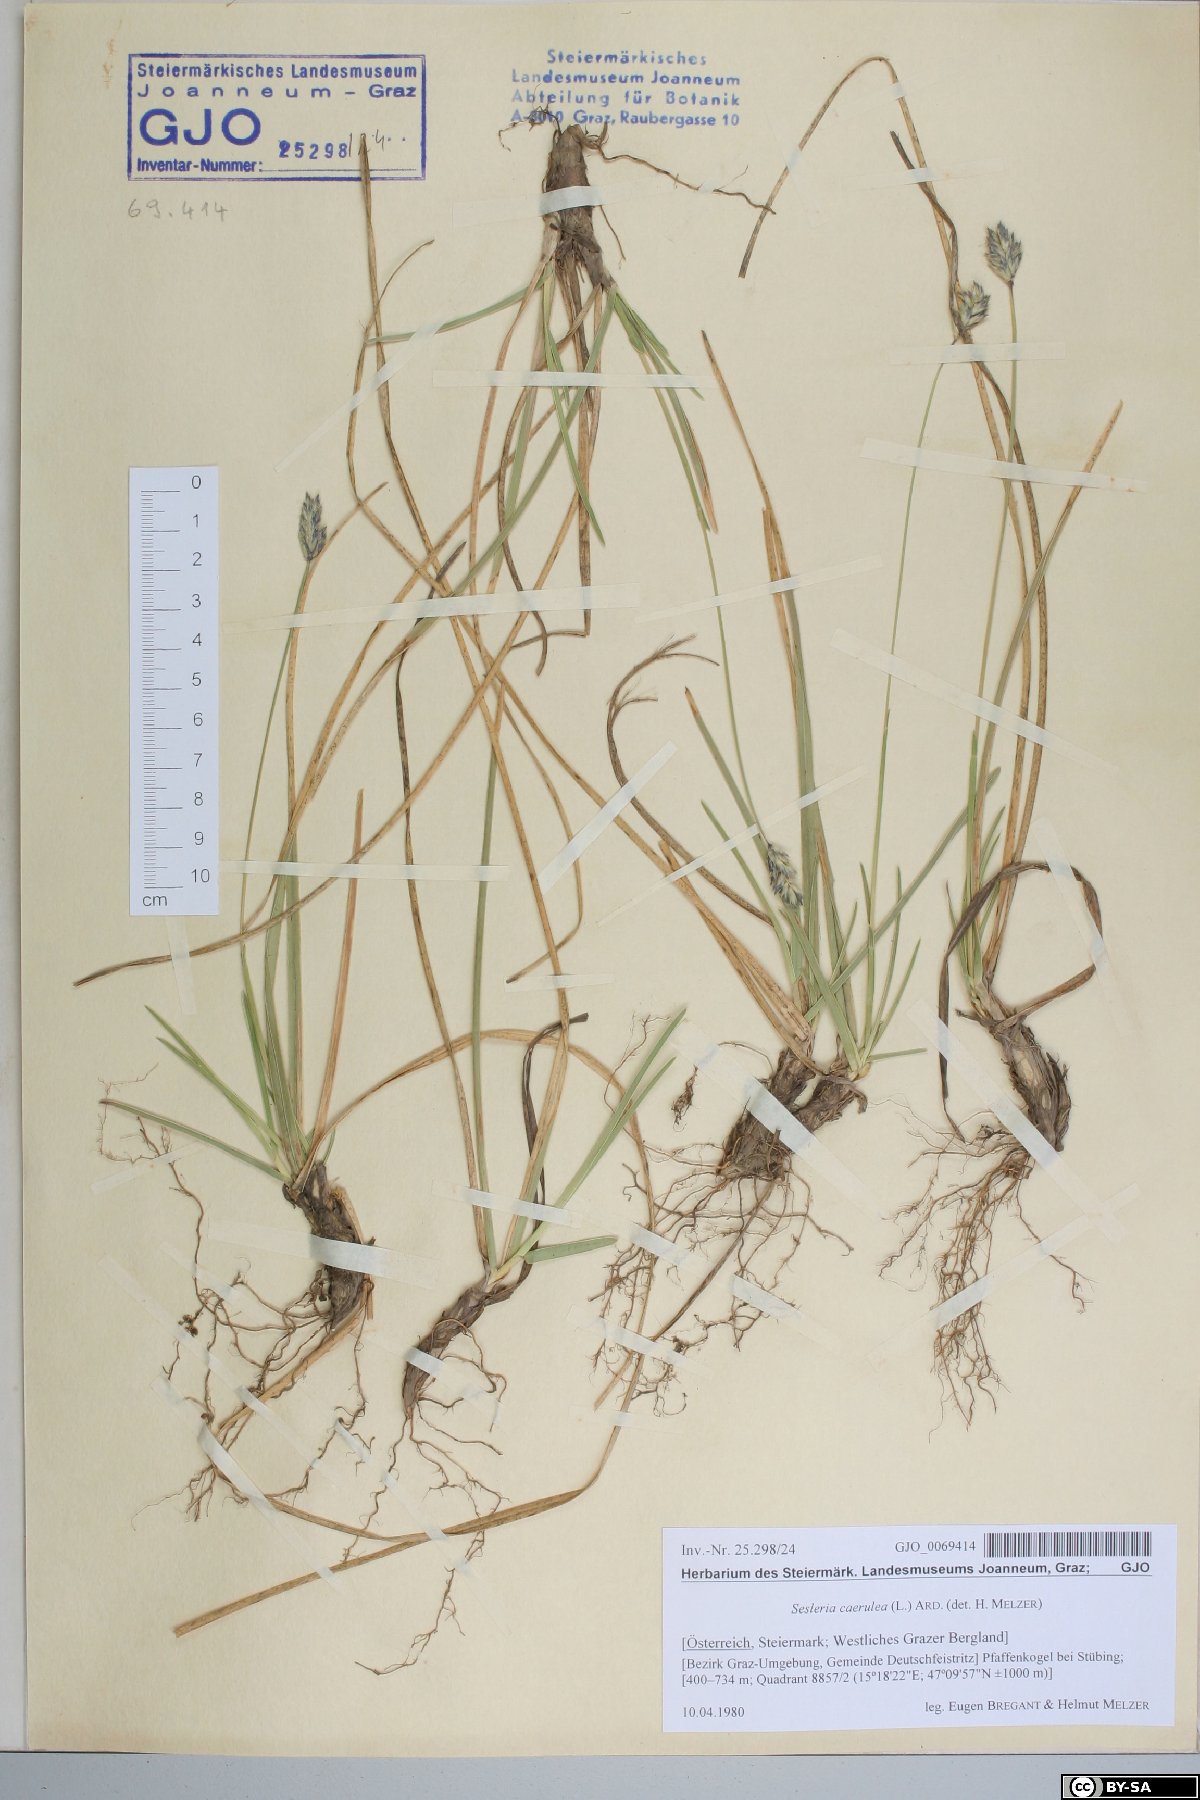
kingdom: Plantae
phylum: Tracheophyta
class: Liliopsida
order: Poales
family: Poaceae
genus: Sesleria
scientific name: Sesleria caerulea
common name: Blue moor-grass
